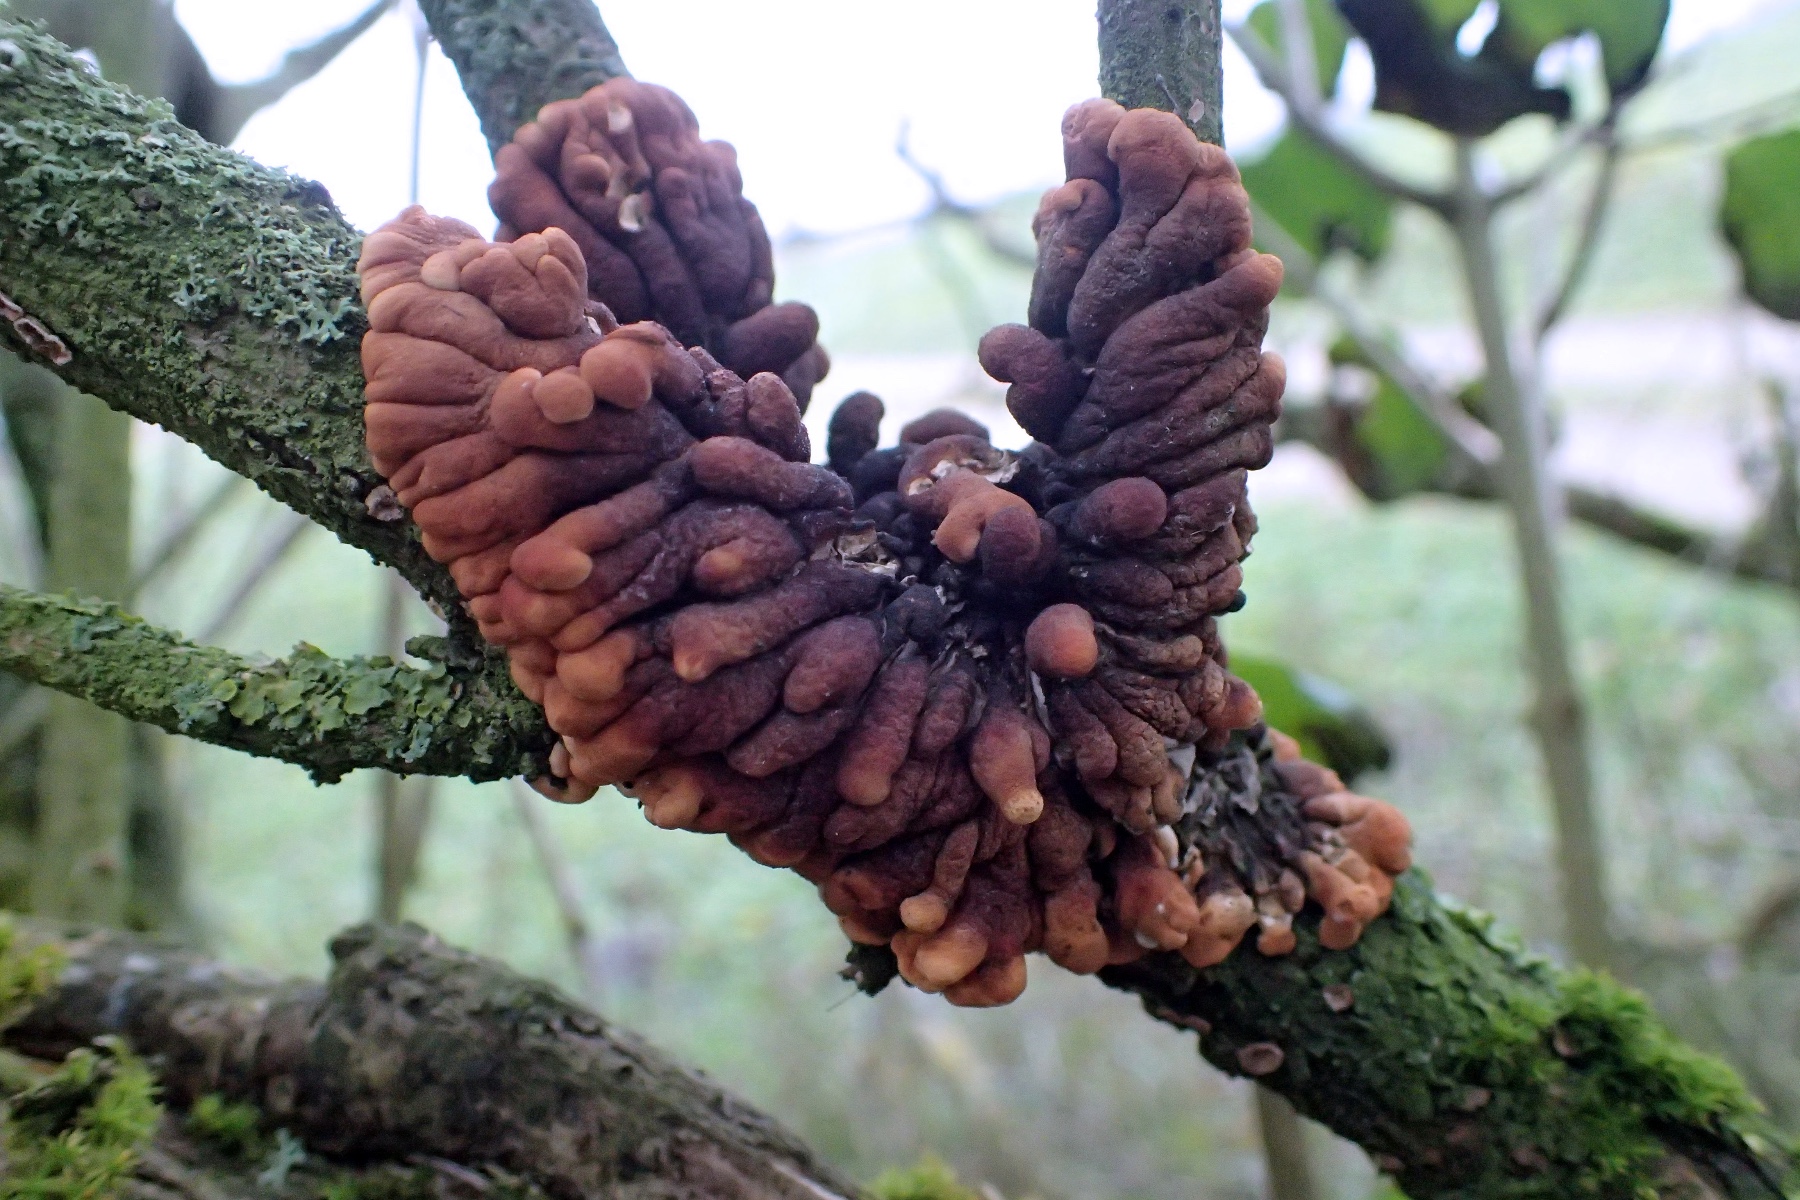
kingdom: Fungi
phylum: Ascomycota
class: Sordariomycetes
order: Hypocreales
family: Hypocreaceae
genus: Hypocreopsis
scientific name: Hypocreopsis lichenoides
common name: pilfinger
